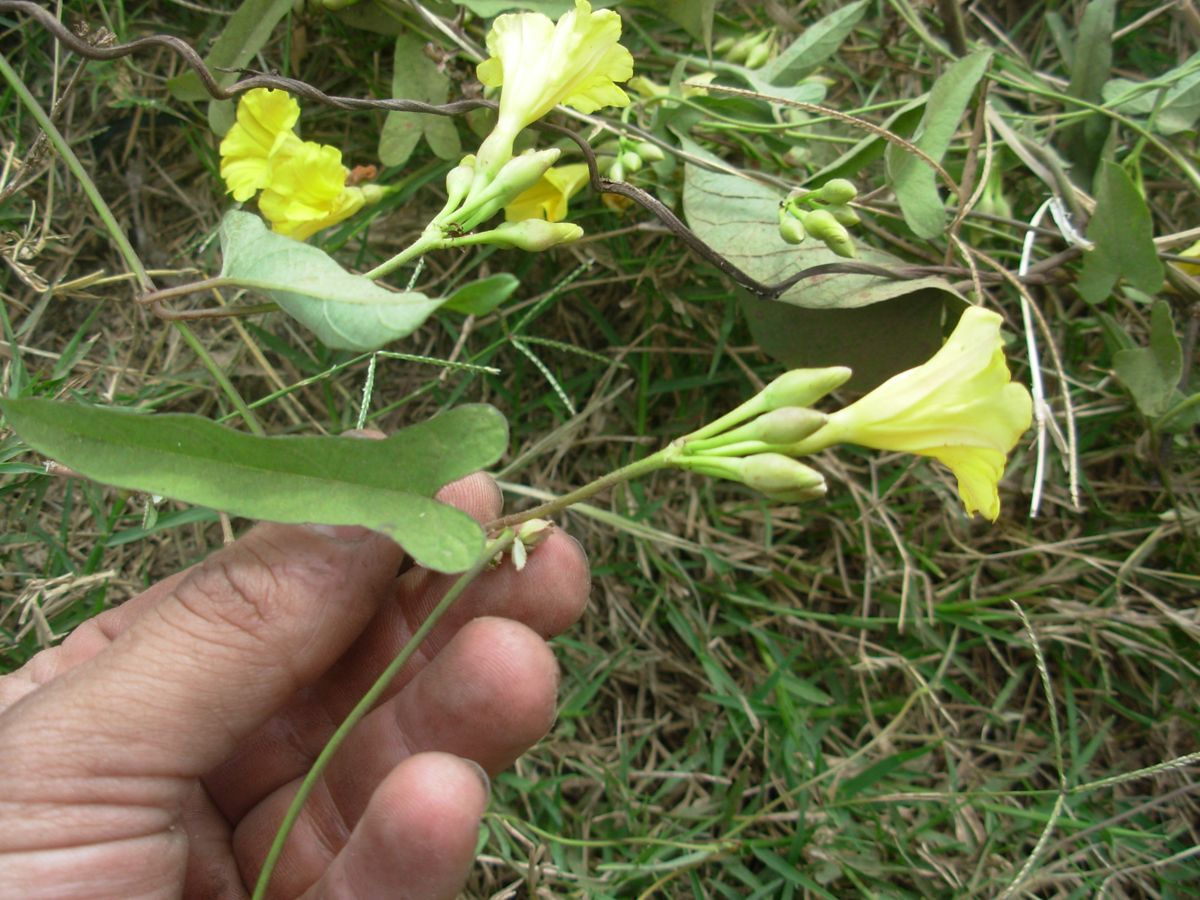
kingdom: Plantae
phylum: Tracheophyta
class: Magnoliopsida
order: Solanales
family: Convolvulaceae
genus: Camonea
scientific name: Camonea umbellata
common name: Hogvine
